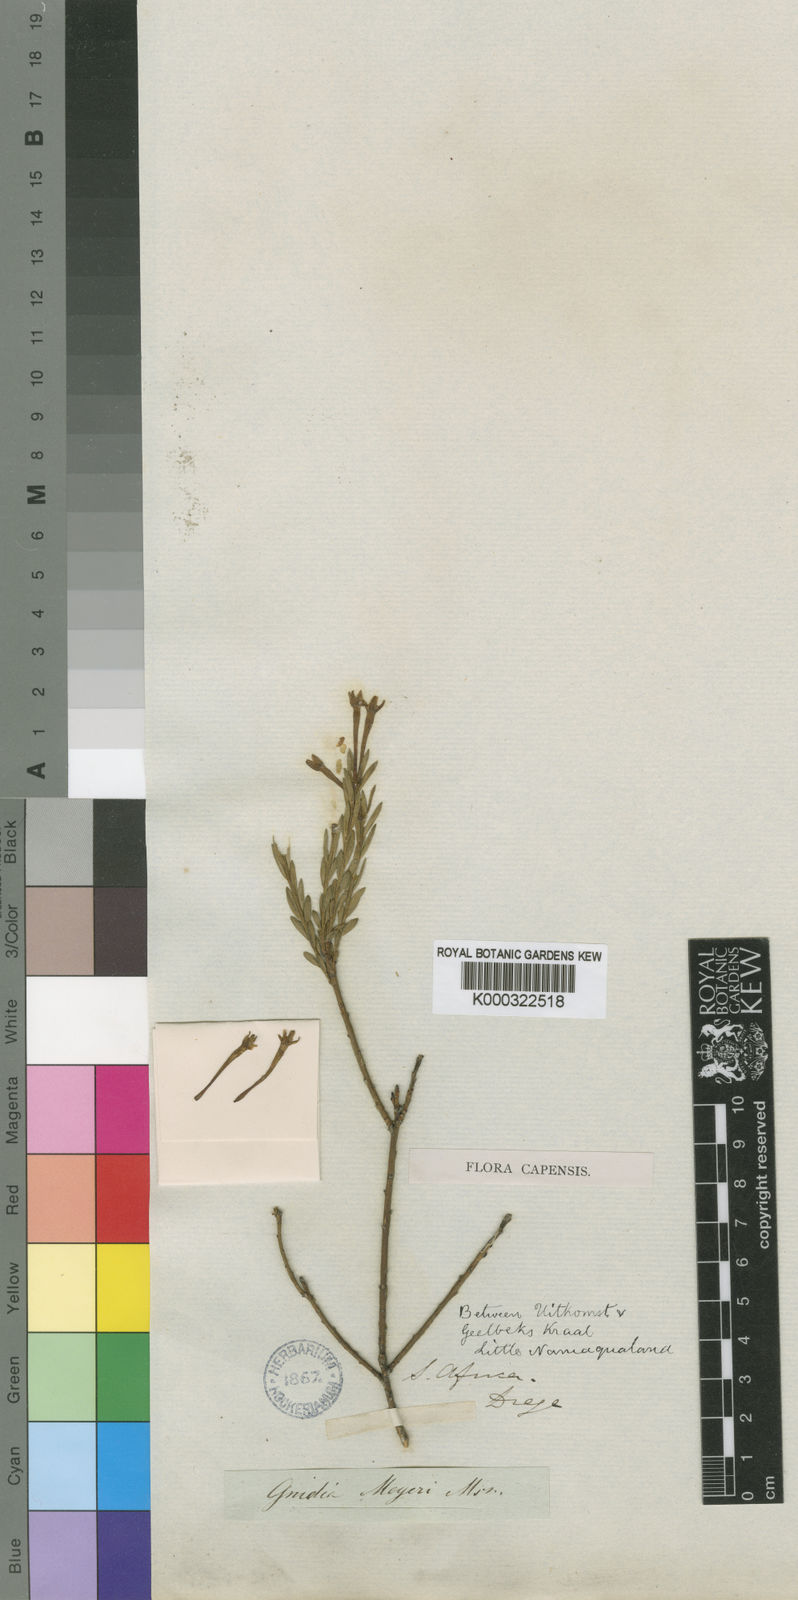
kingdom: Plantae
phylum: Tracheophyta
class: Magnoliopsida
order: Malvales
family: Thymelaeaceae
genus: Gnidia
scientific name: Gnidia meyeri
